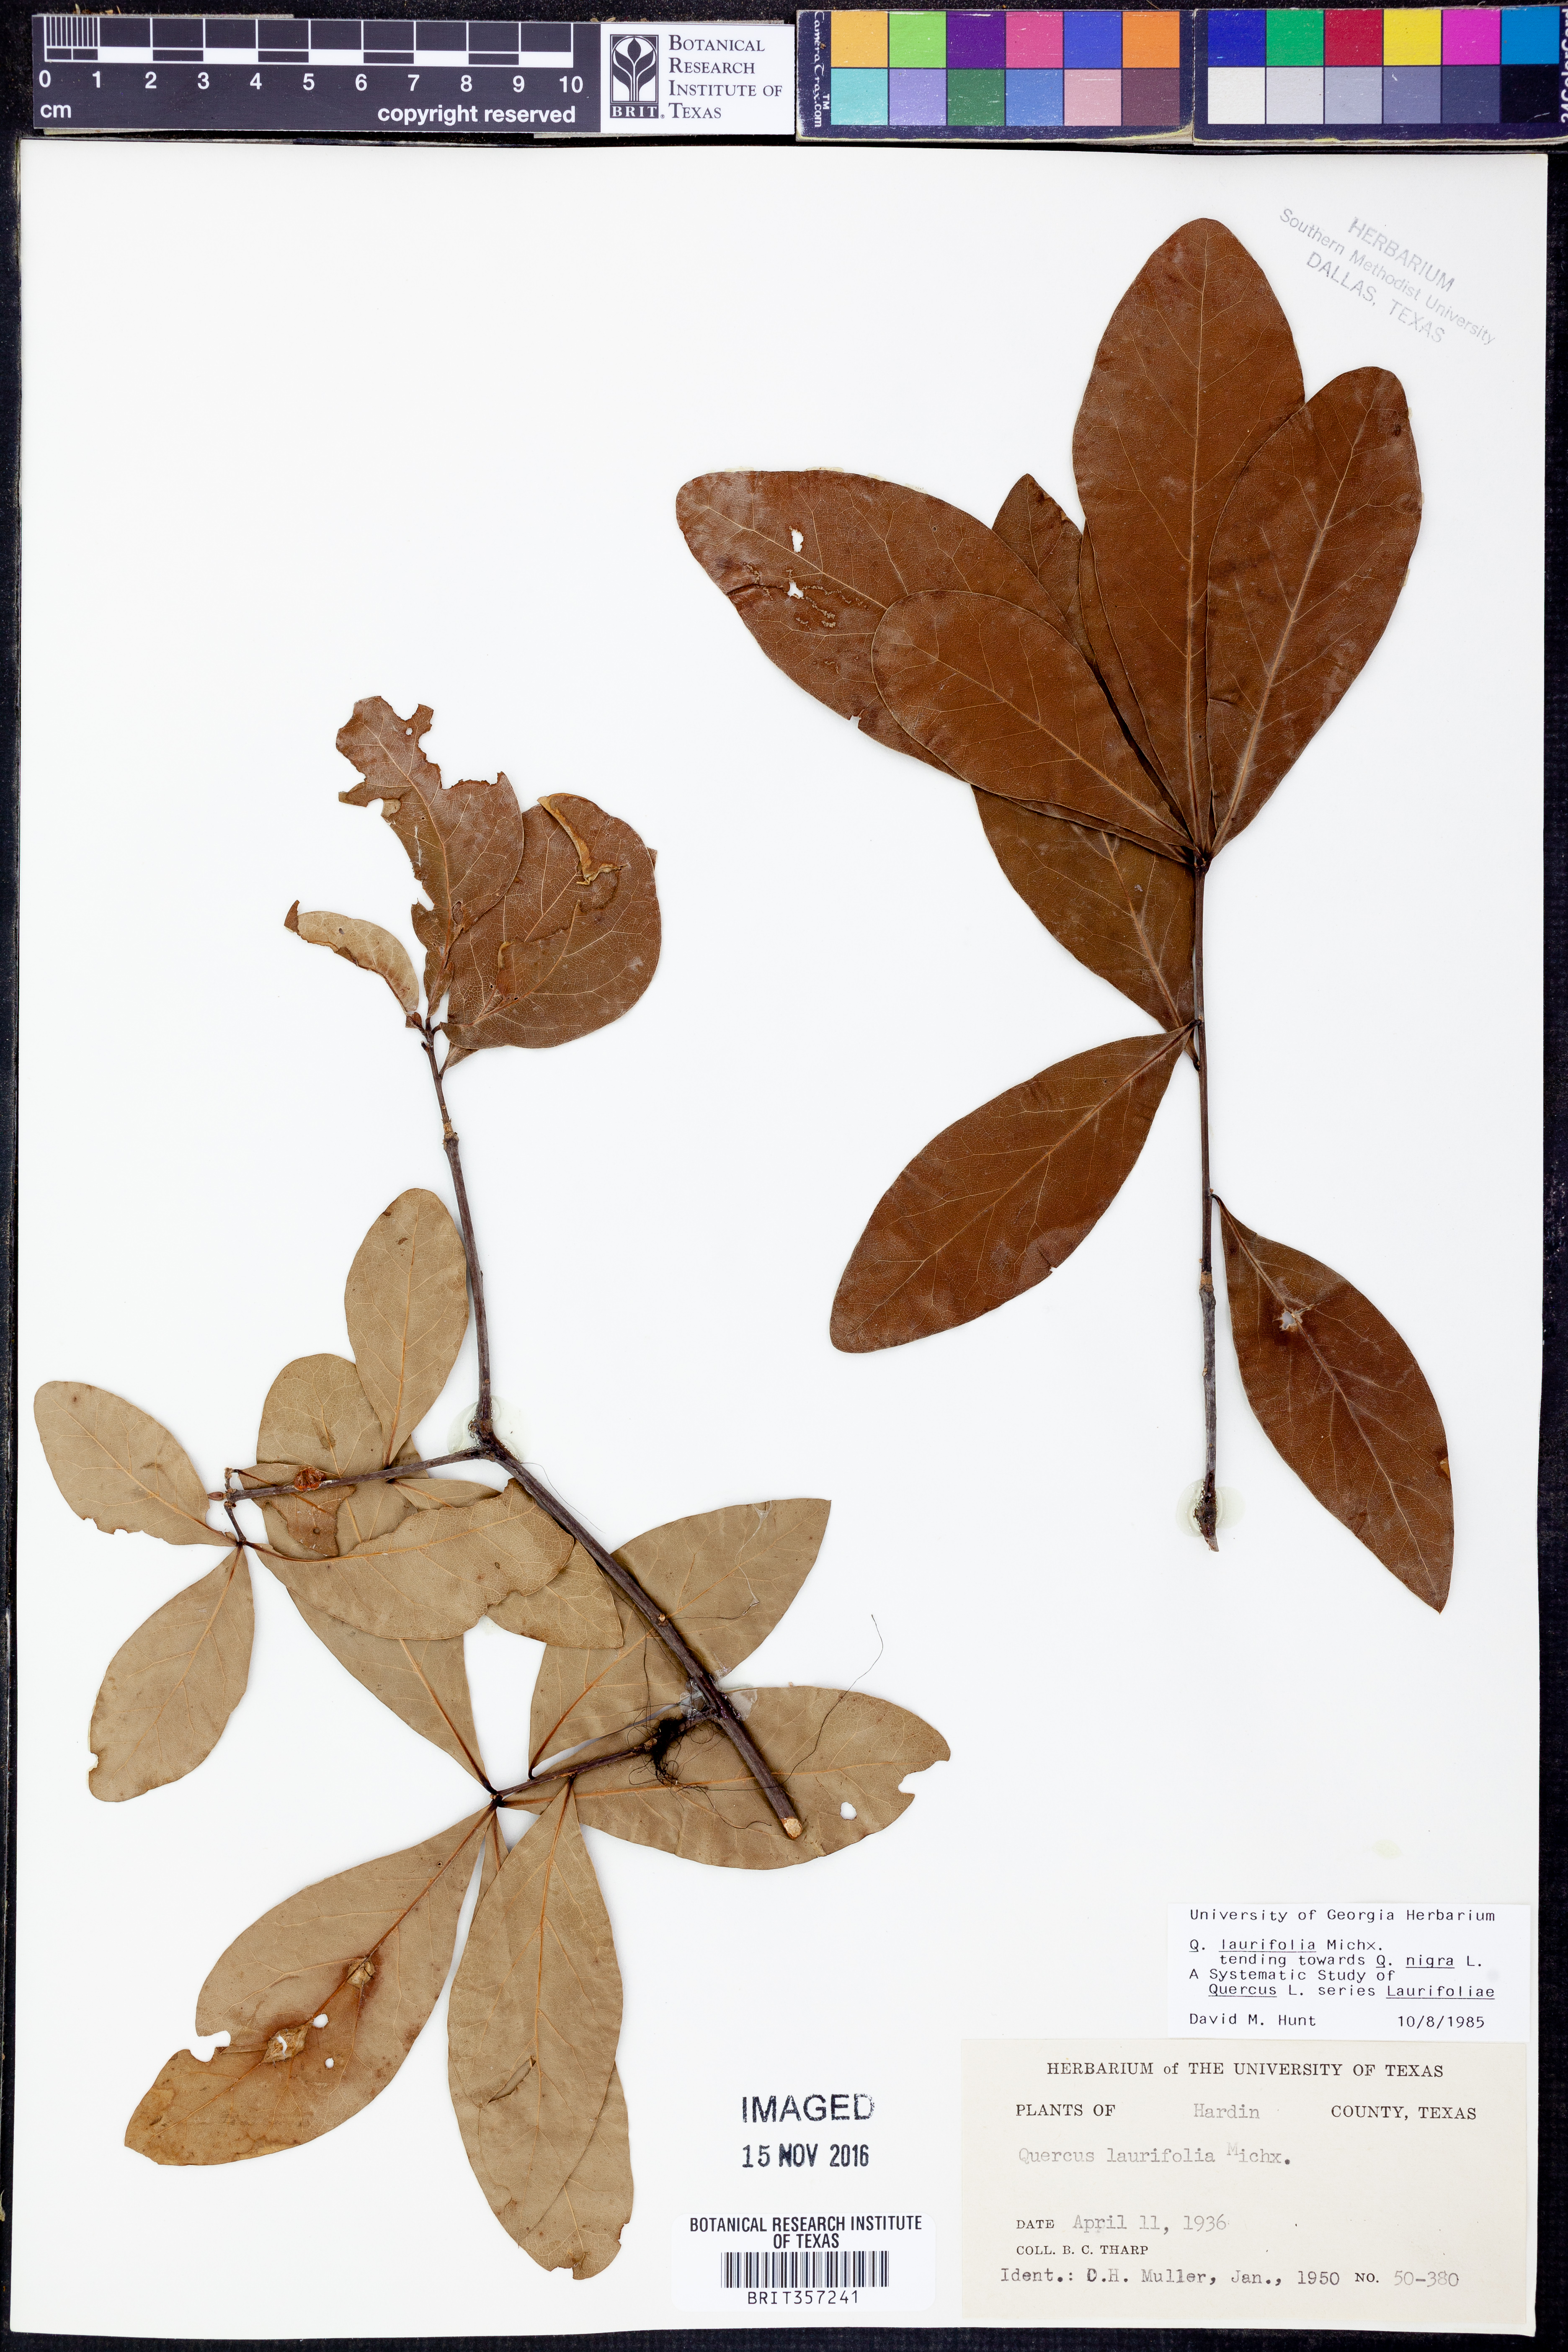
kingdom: Plantae
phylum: Tracheophyta
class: Magnoliopsida
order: Fagales
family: Fagaceae
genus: Quercus
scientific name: Quercus laurifolia
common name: Swamp laurel oak
